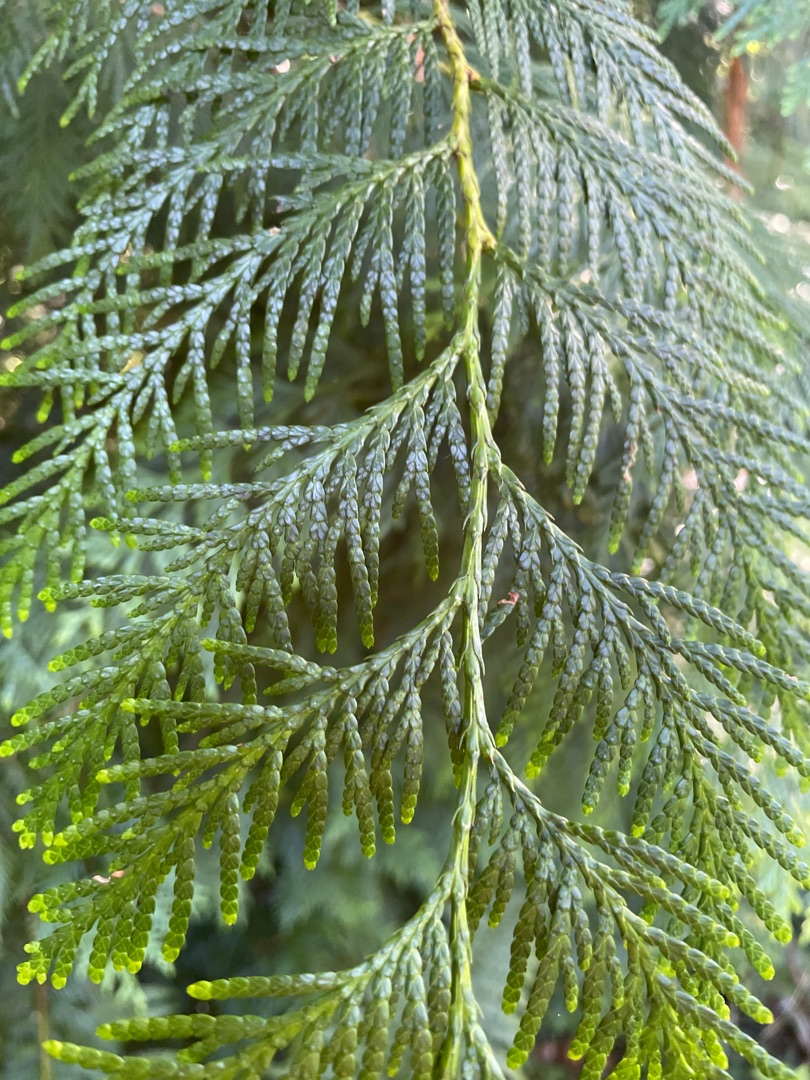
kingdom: Plantae
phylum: Tracheophyta
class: Pinopsida
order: Pinales
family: Cupressaceae
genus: Thuja
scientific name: Thuja plicata
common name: Kæmpe-thuja
